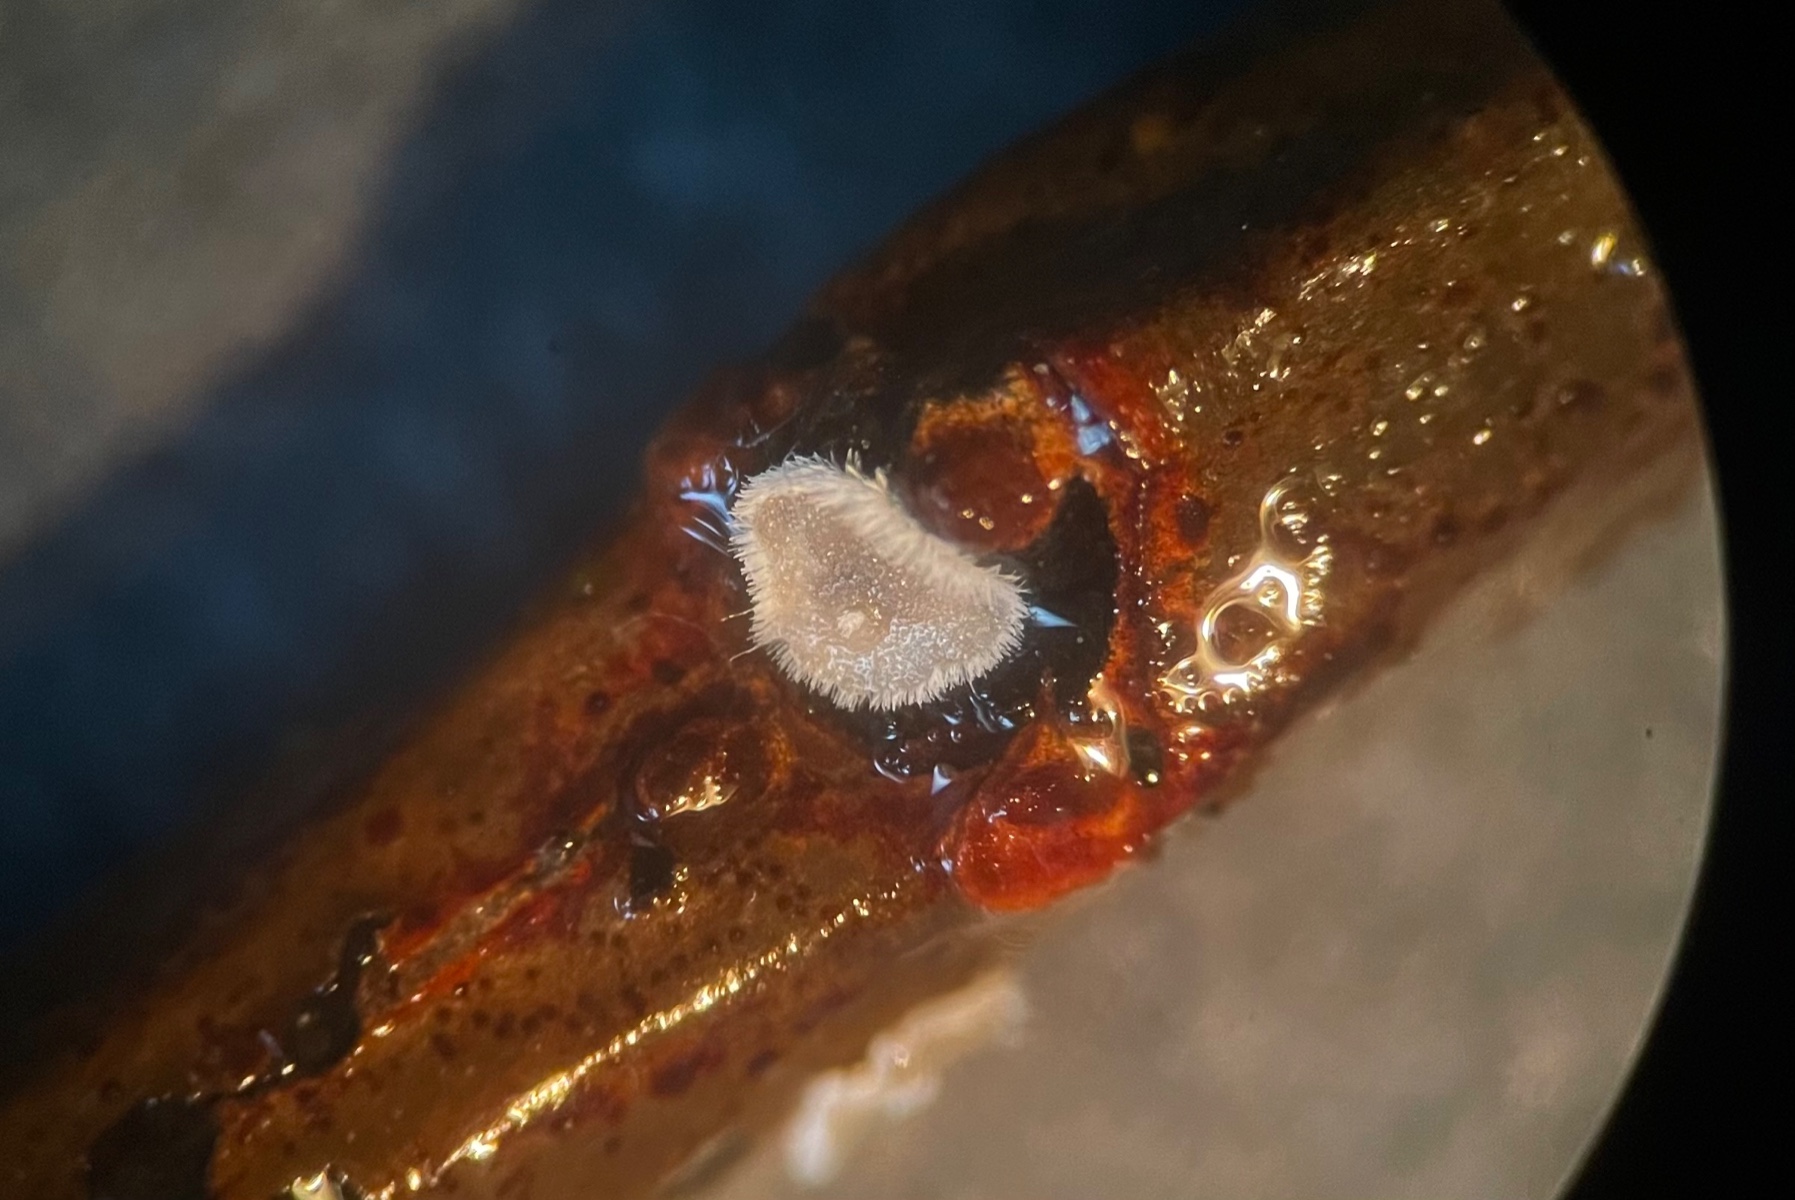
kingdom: Fungi
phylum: Basidiomycota
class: Agaricomycetes
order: Agaricales
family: Niaceae
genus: Lachnella
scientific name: Lachnella alboviolascens
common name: grå frynserede
